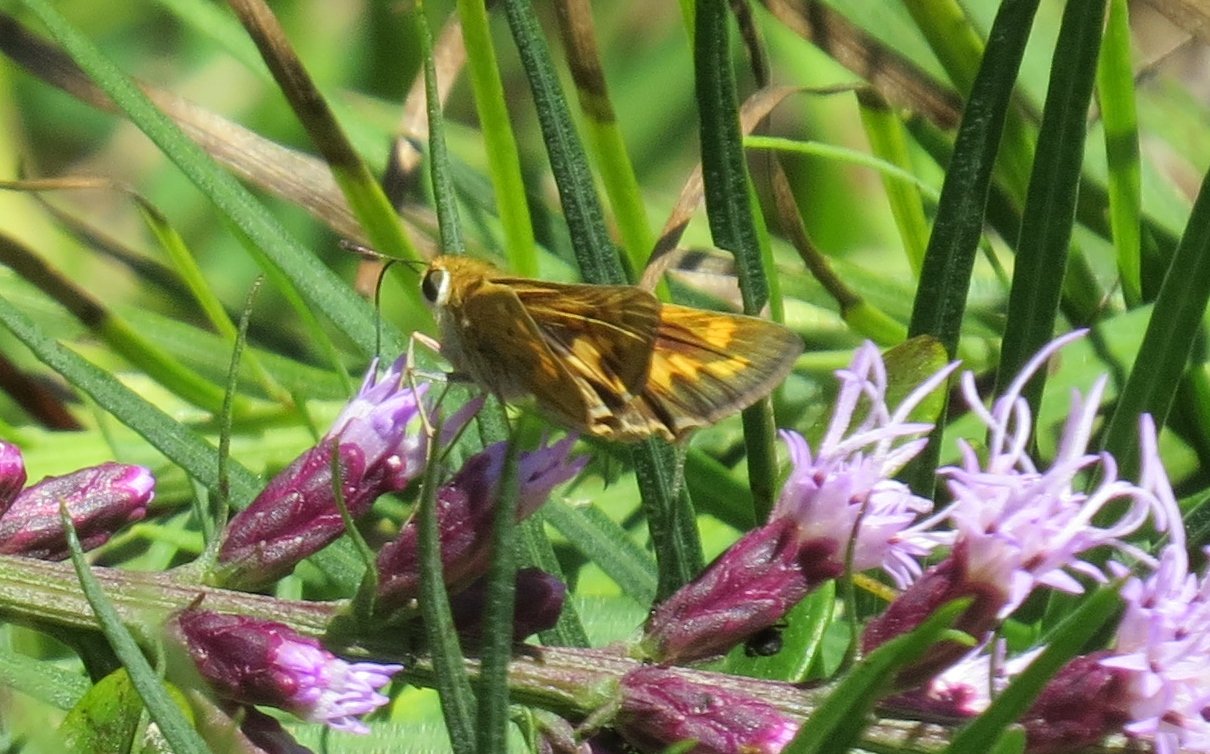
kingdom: Animalia
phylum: Arthropoda
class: Insecta
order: Lepidoptera
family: Hesperiidae
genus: Hylephila
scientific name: Hylephila phyleus
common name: Fiery Skipper
